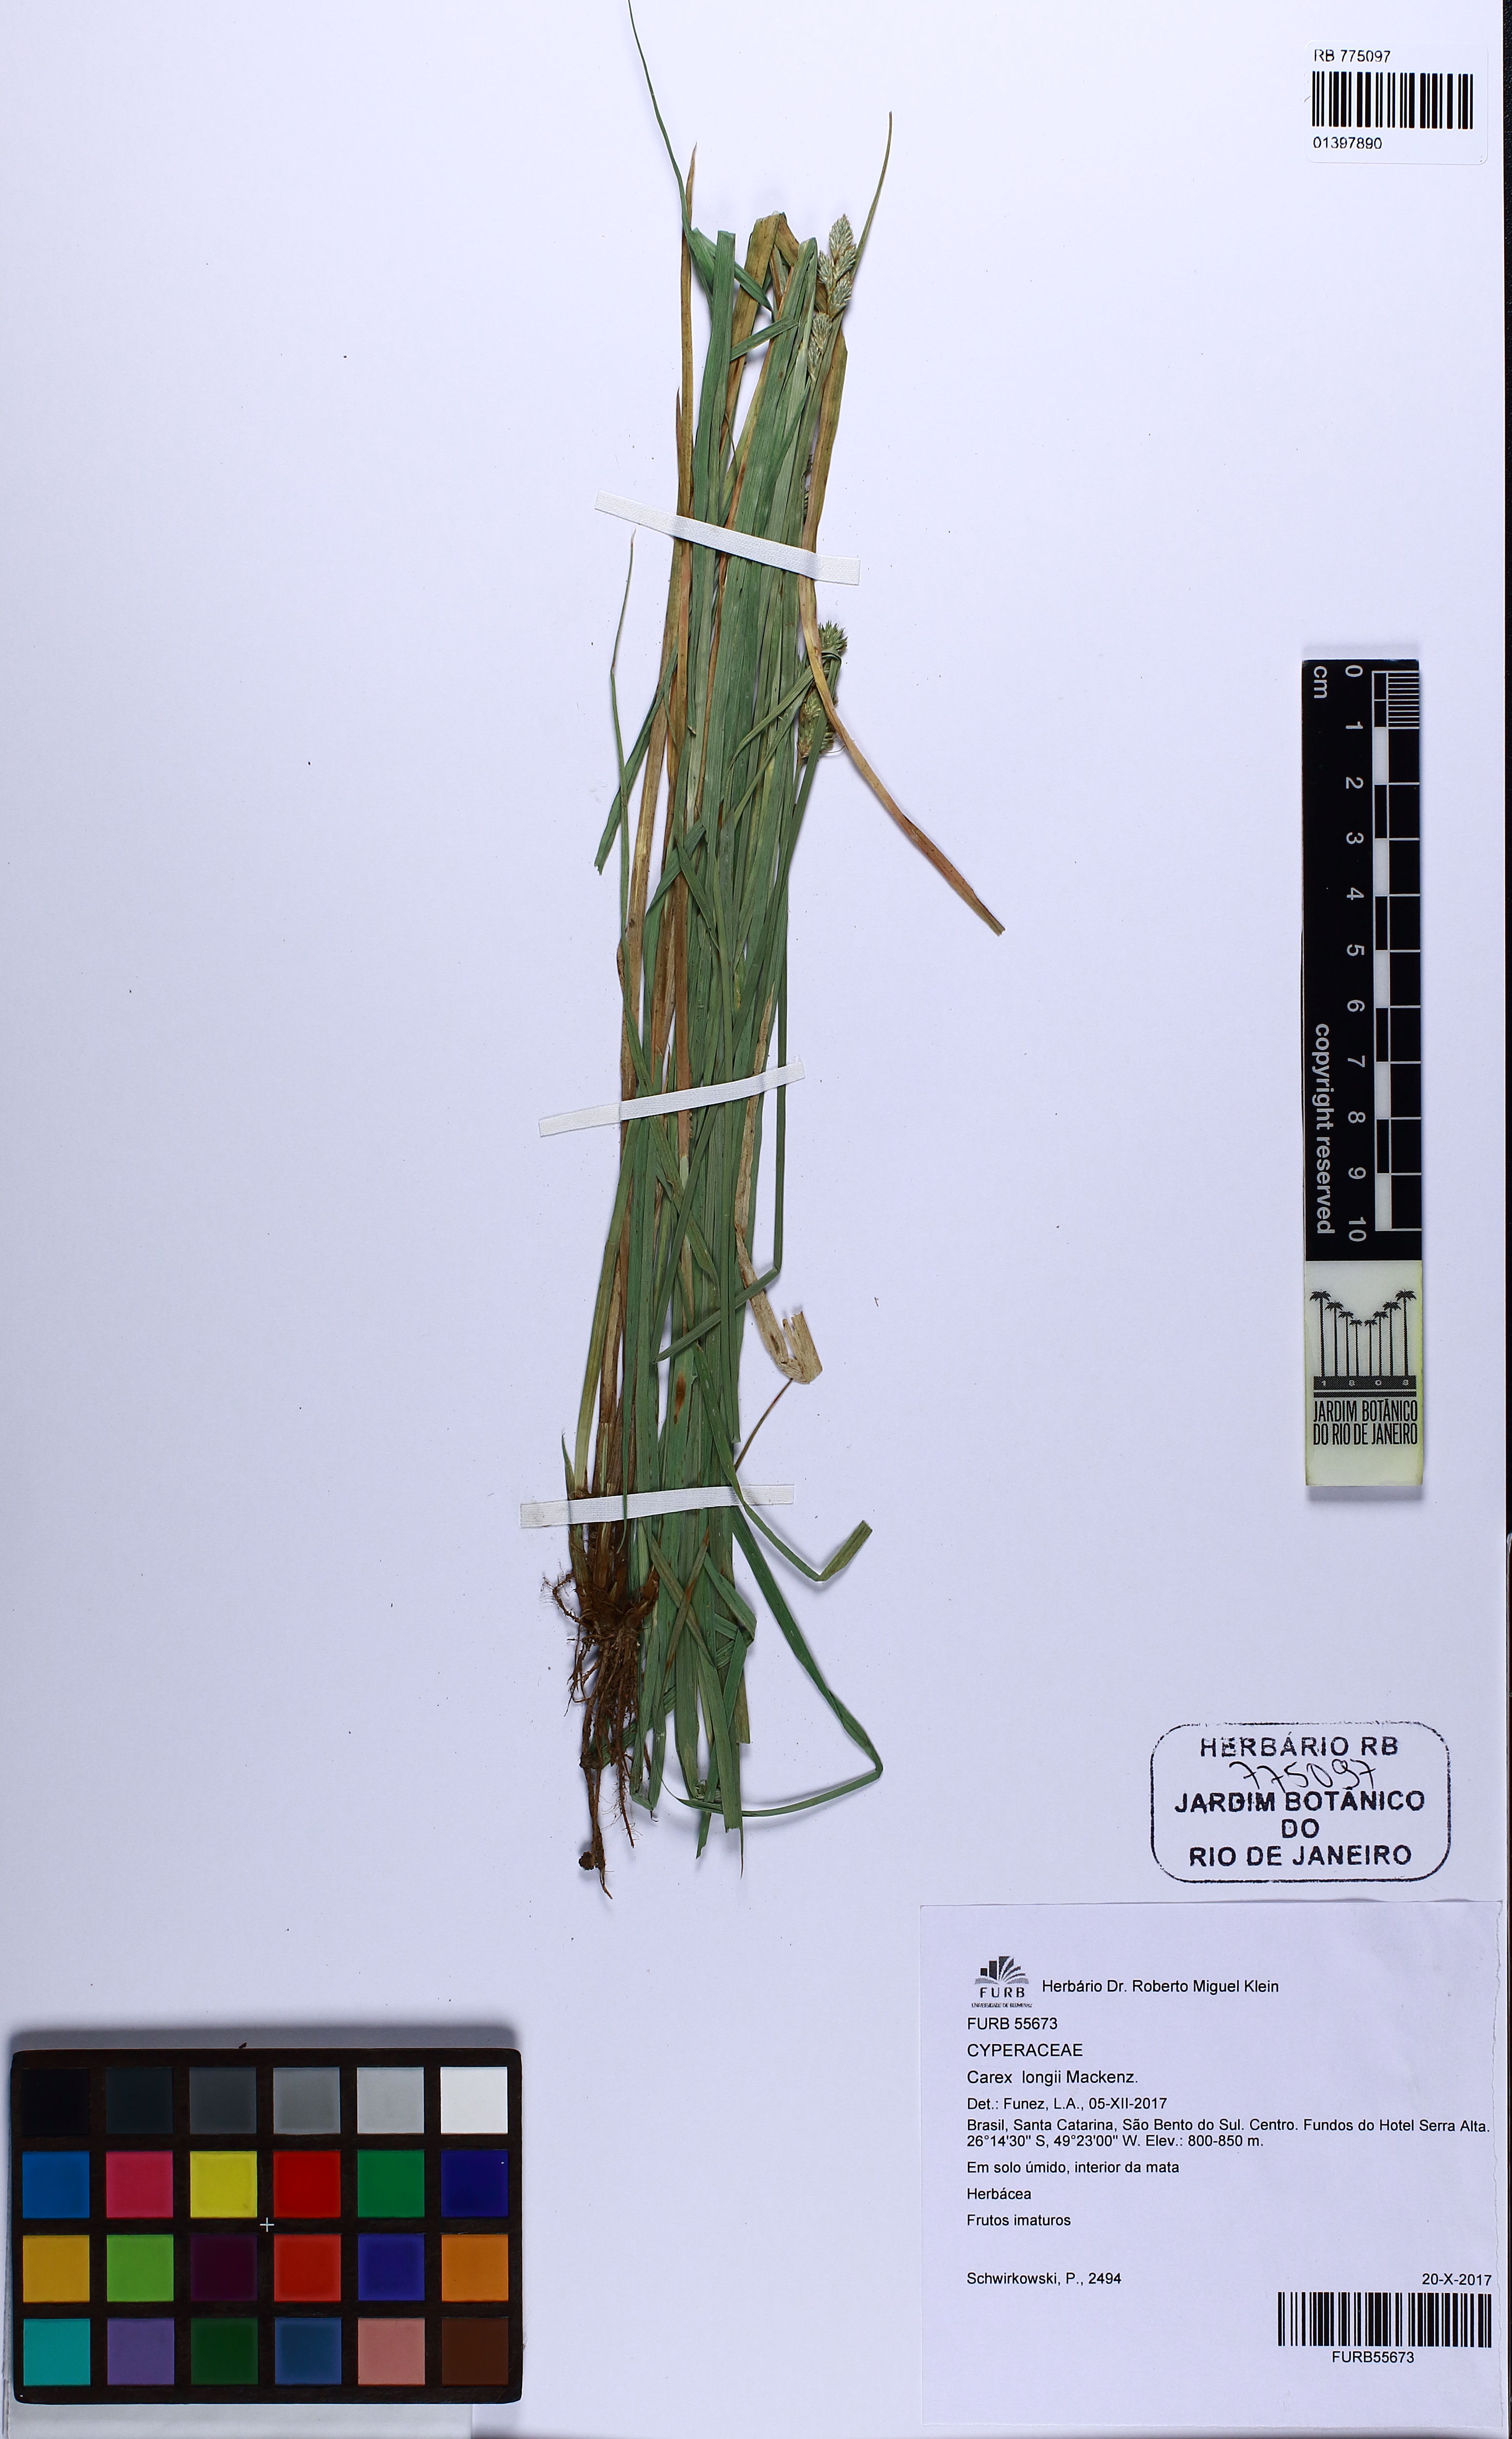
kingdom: Plantae
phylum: Tracheophyta
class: Liliopsida
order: Poales
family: Cyperaceae
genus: Carex
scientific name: Carex longii
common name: Long's sedge
